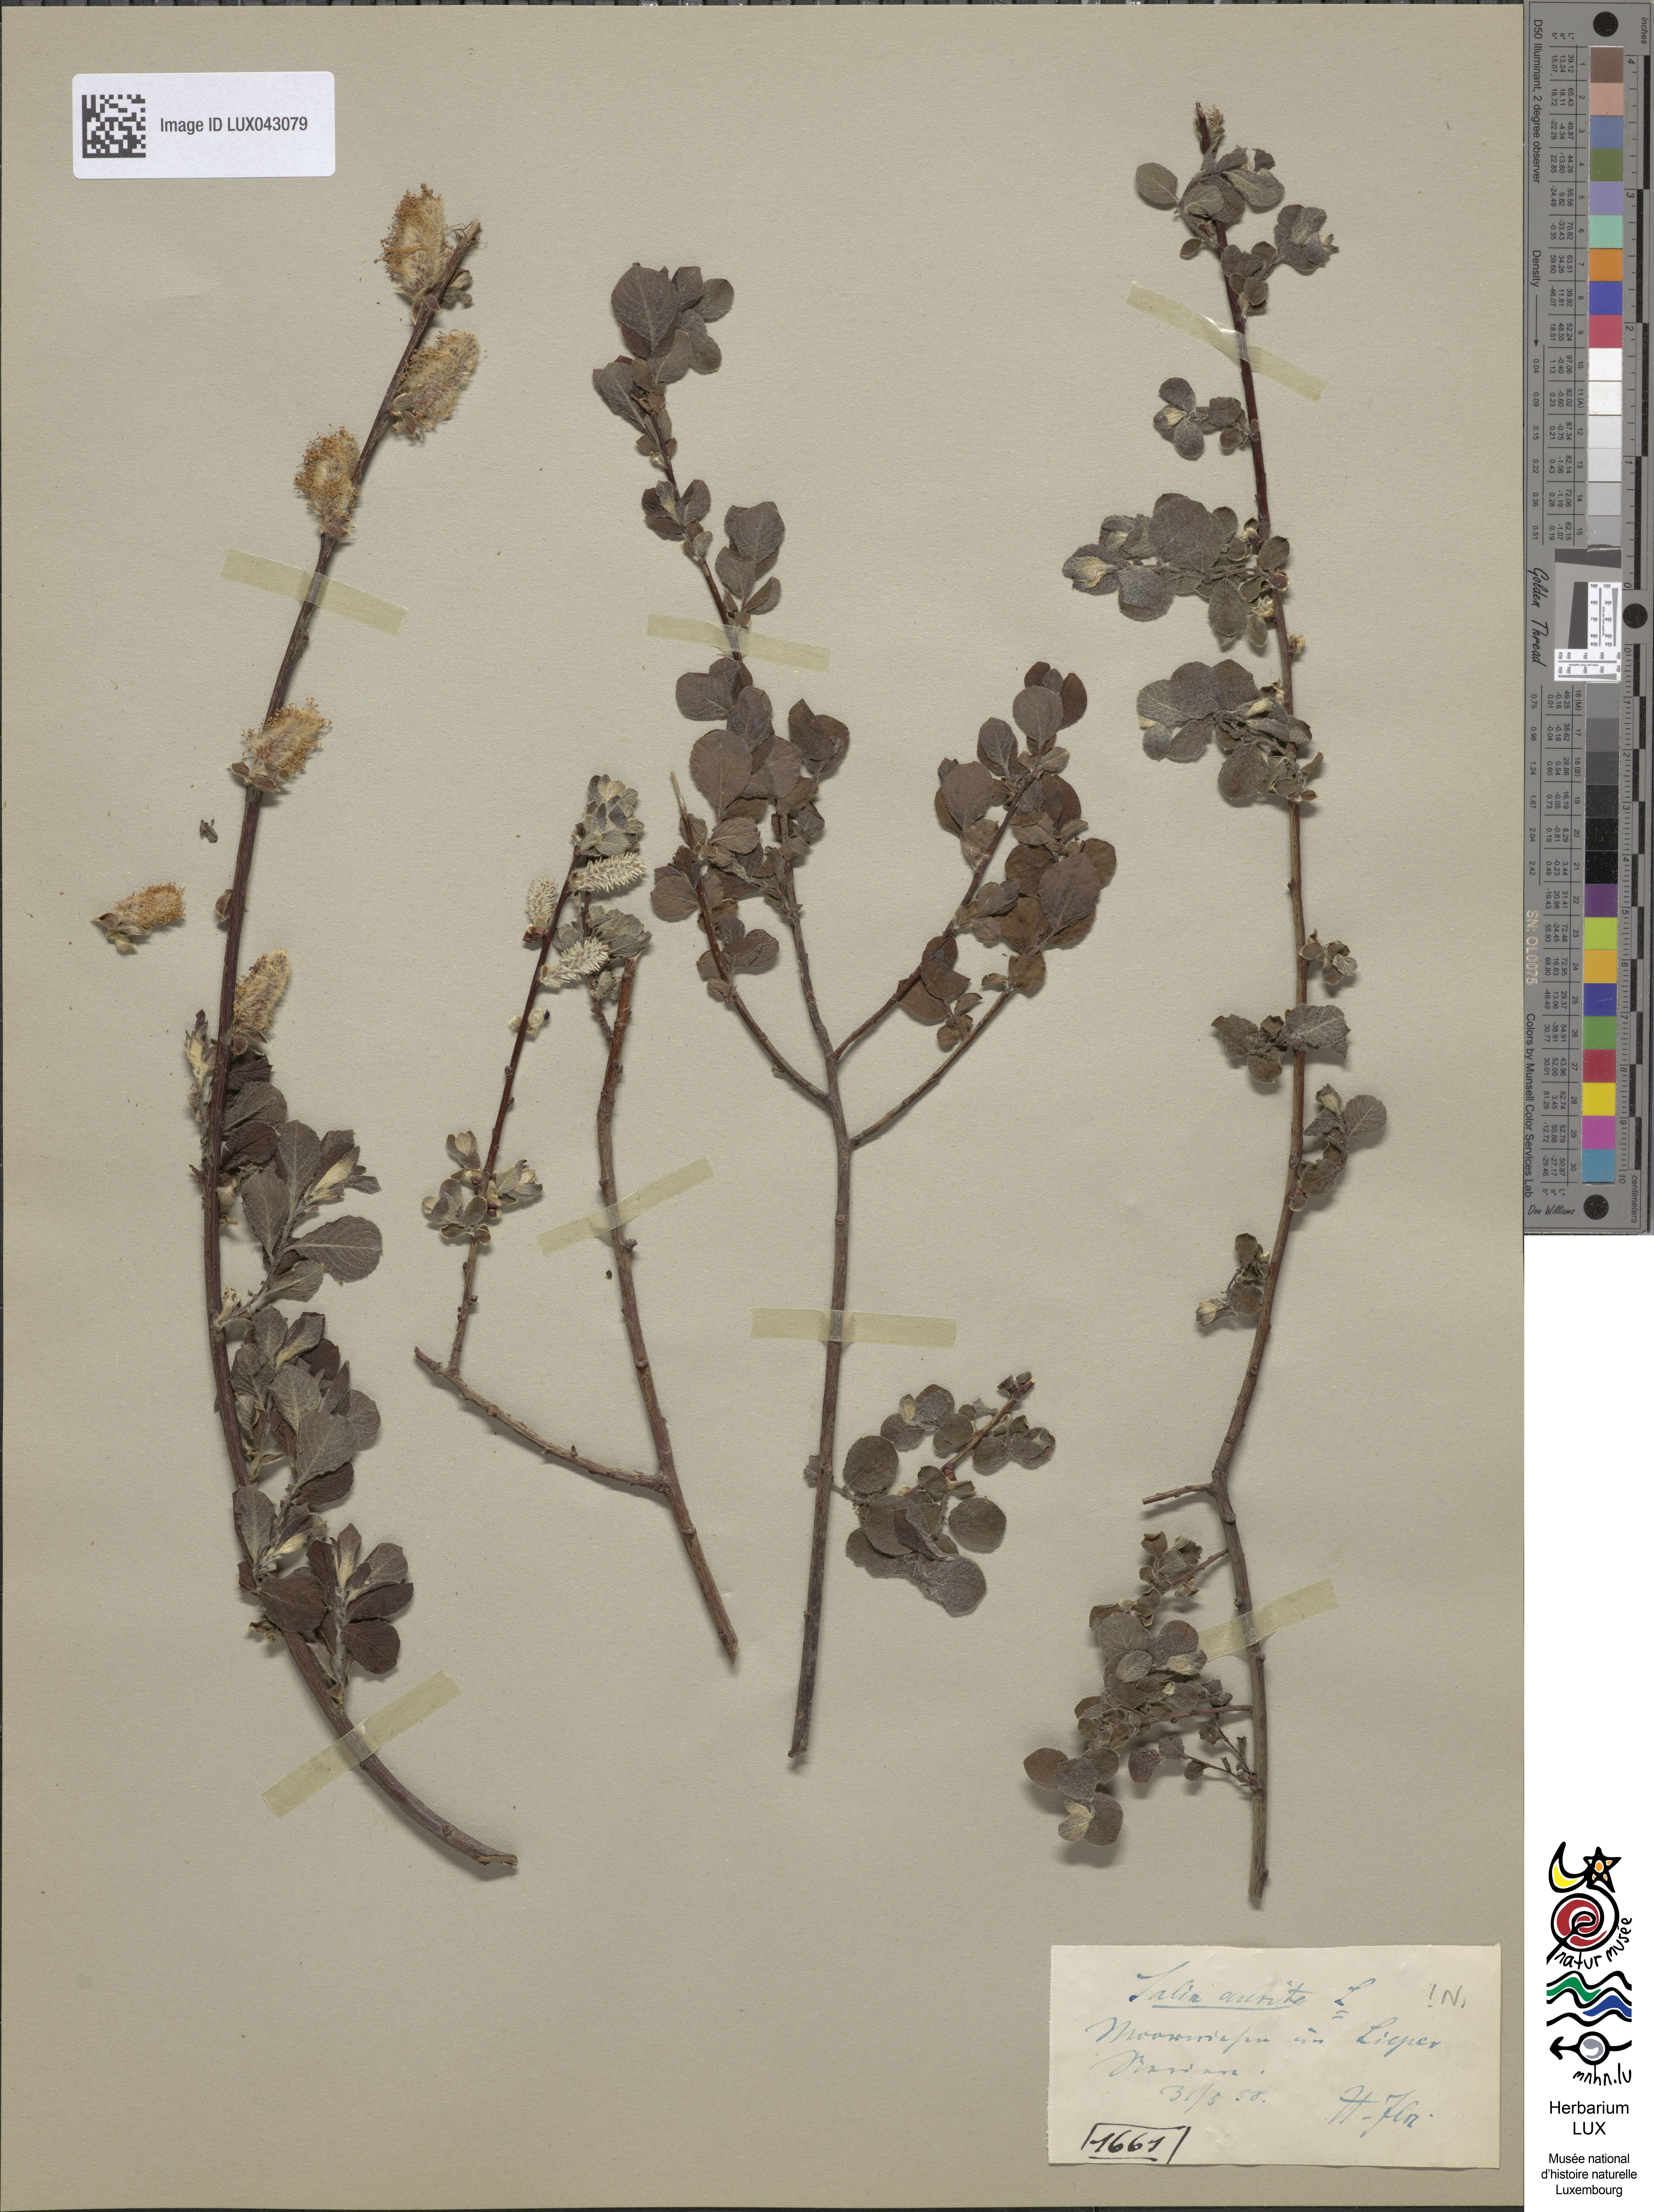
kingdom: Plantae
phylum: Tracheophyta
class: Magnoliopsida
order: Malpighiales
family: Salicaceae
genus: Salix
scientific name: Salix
